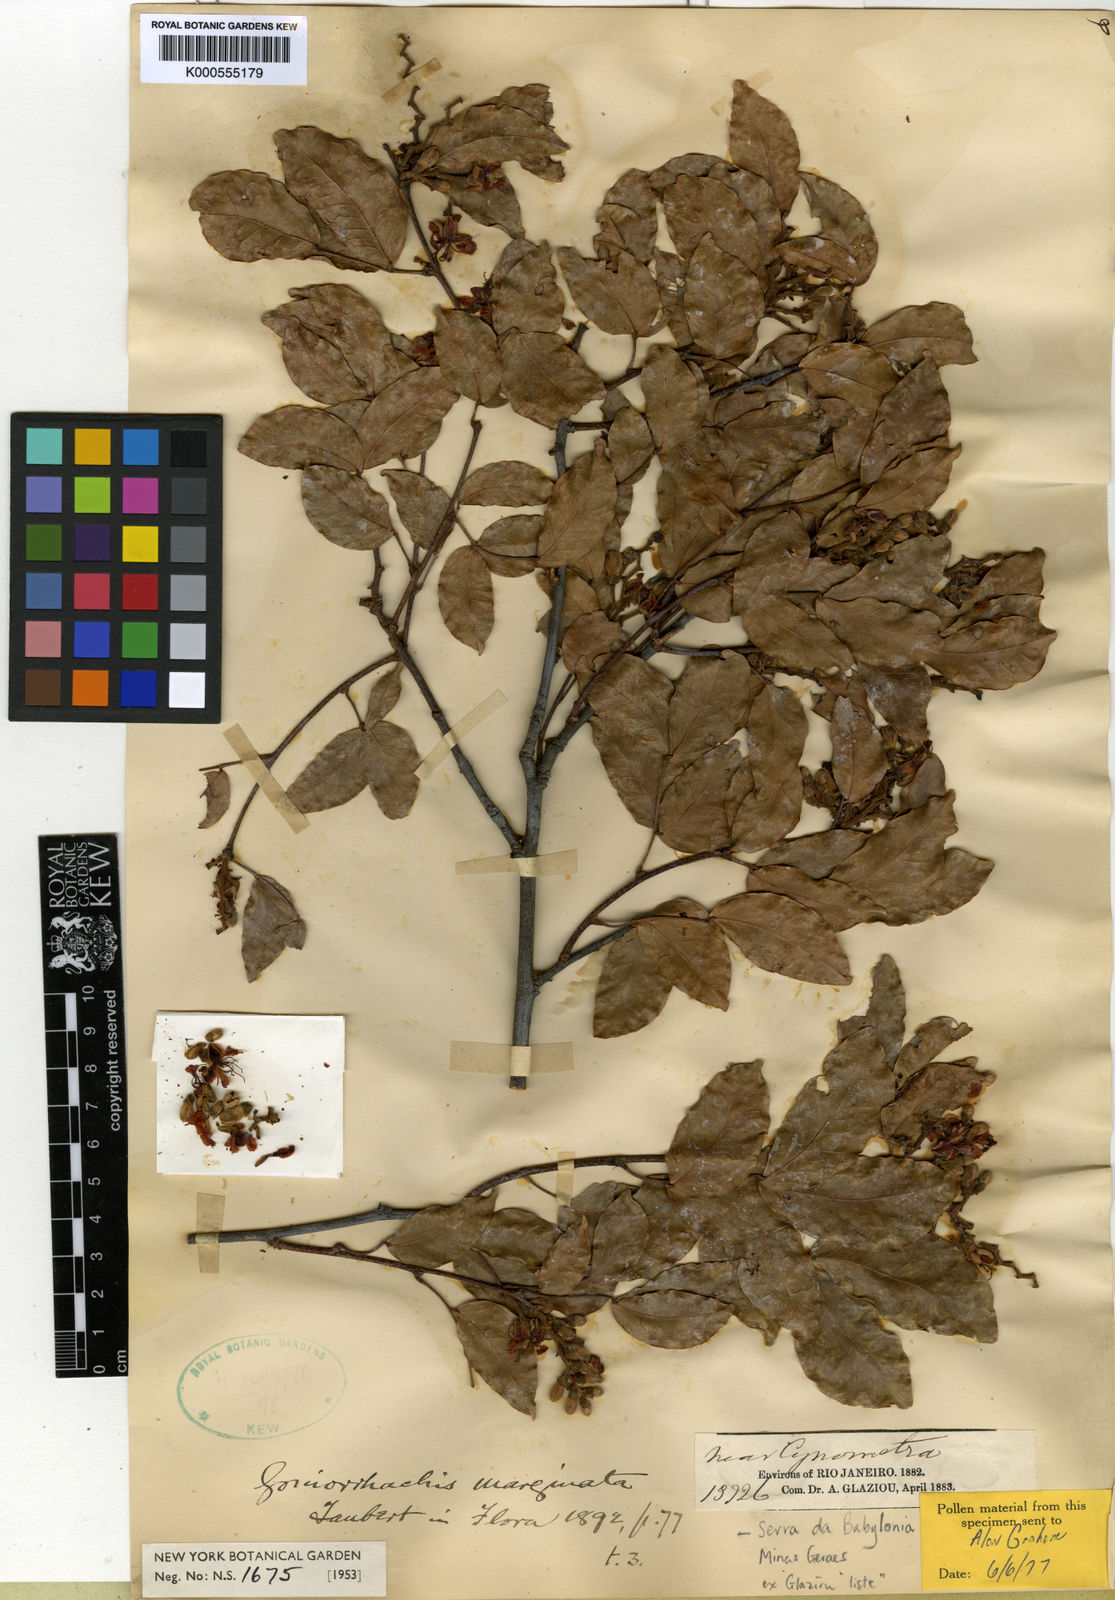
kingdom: Plantae
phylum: Tracheophyta
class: Magnoliopsida
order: Fabales
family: Fabaceae
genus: Goniorrhachis
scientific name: Goniorrhachis marginata
